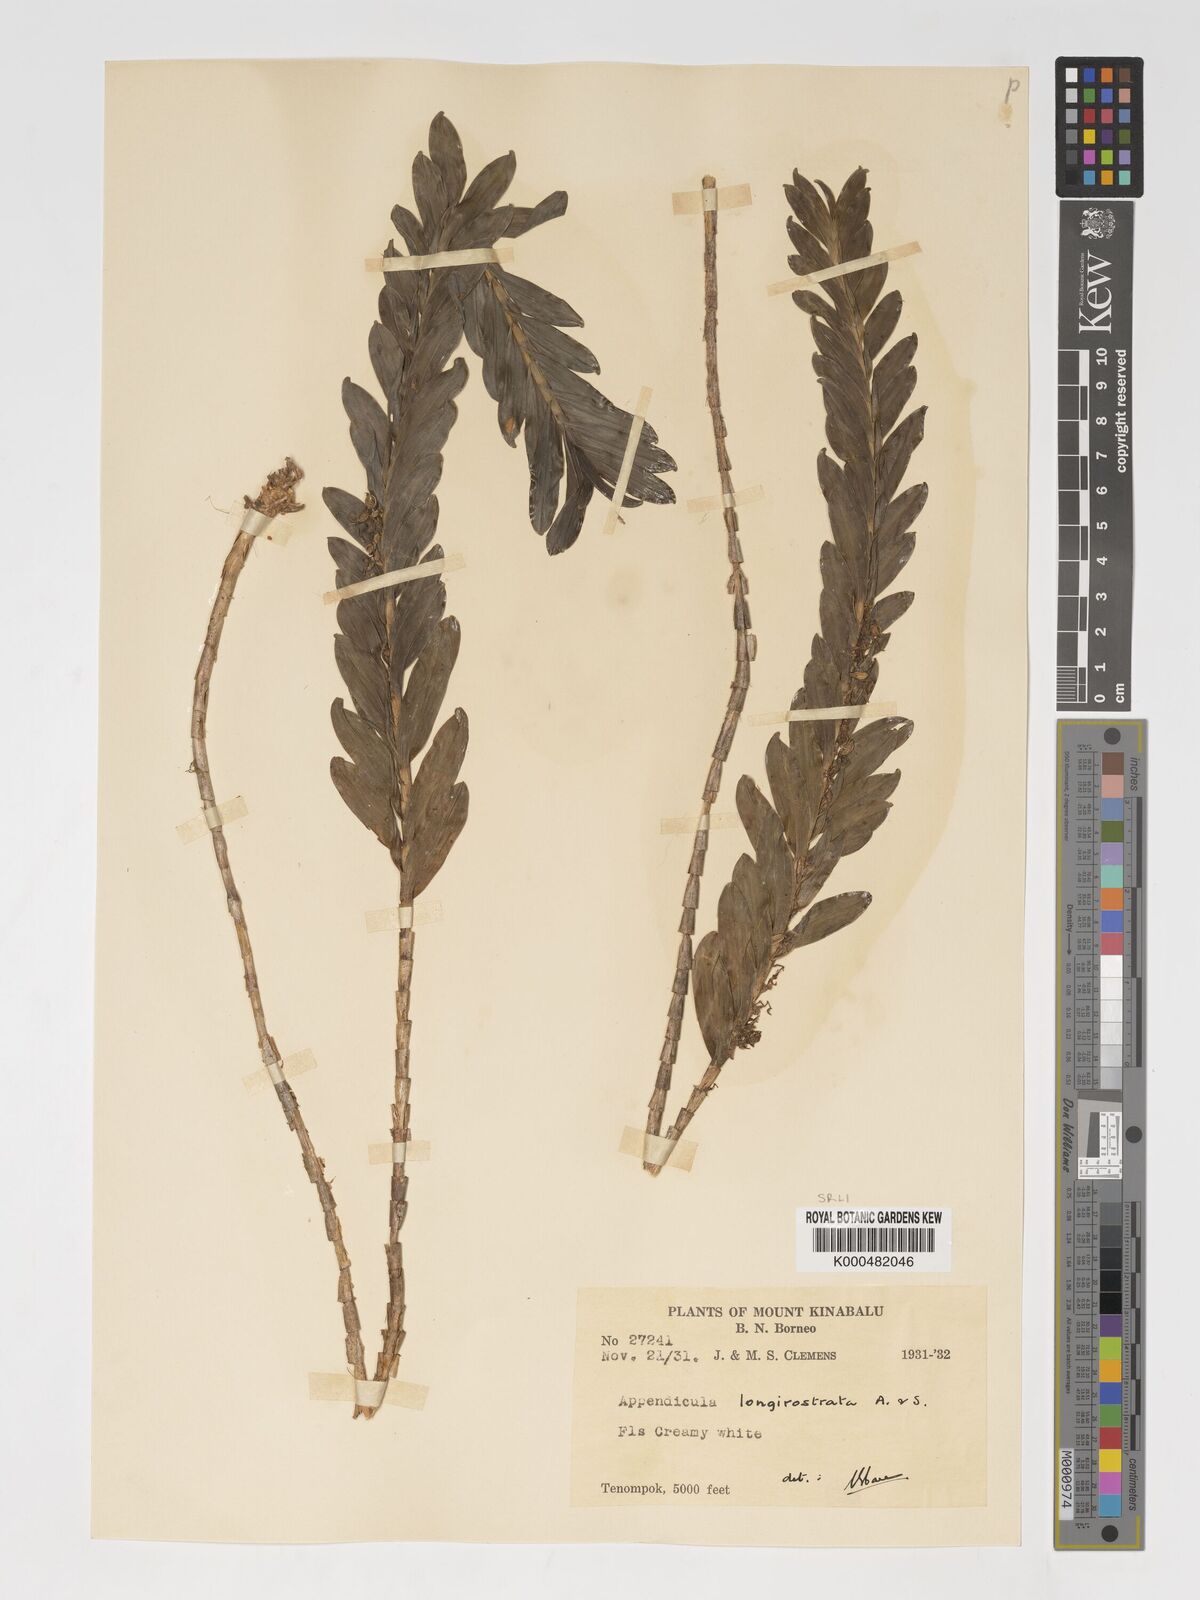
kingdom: Plantae
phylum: Tracheophyta
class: Liliopsida
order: Asparagales
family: Orchidaceae
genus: Appendicula
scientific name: Appendicula longirostrata
